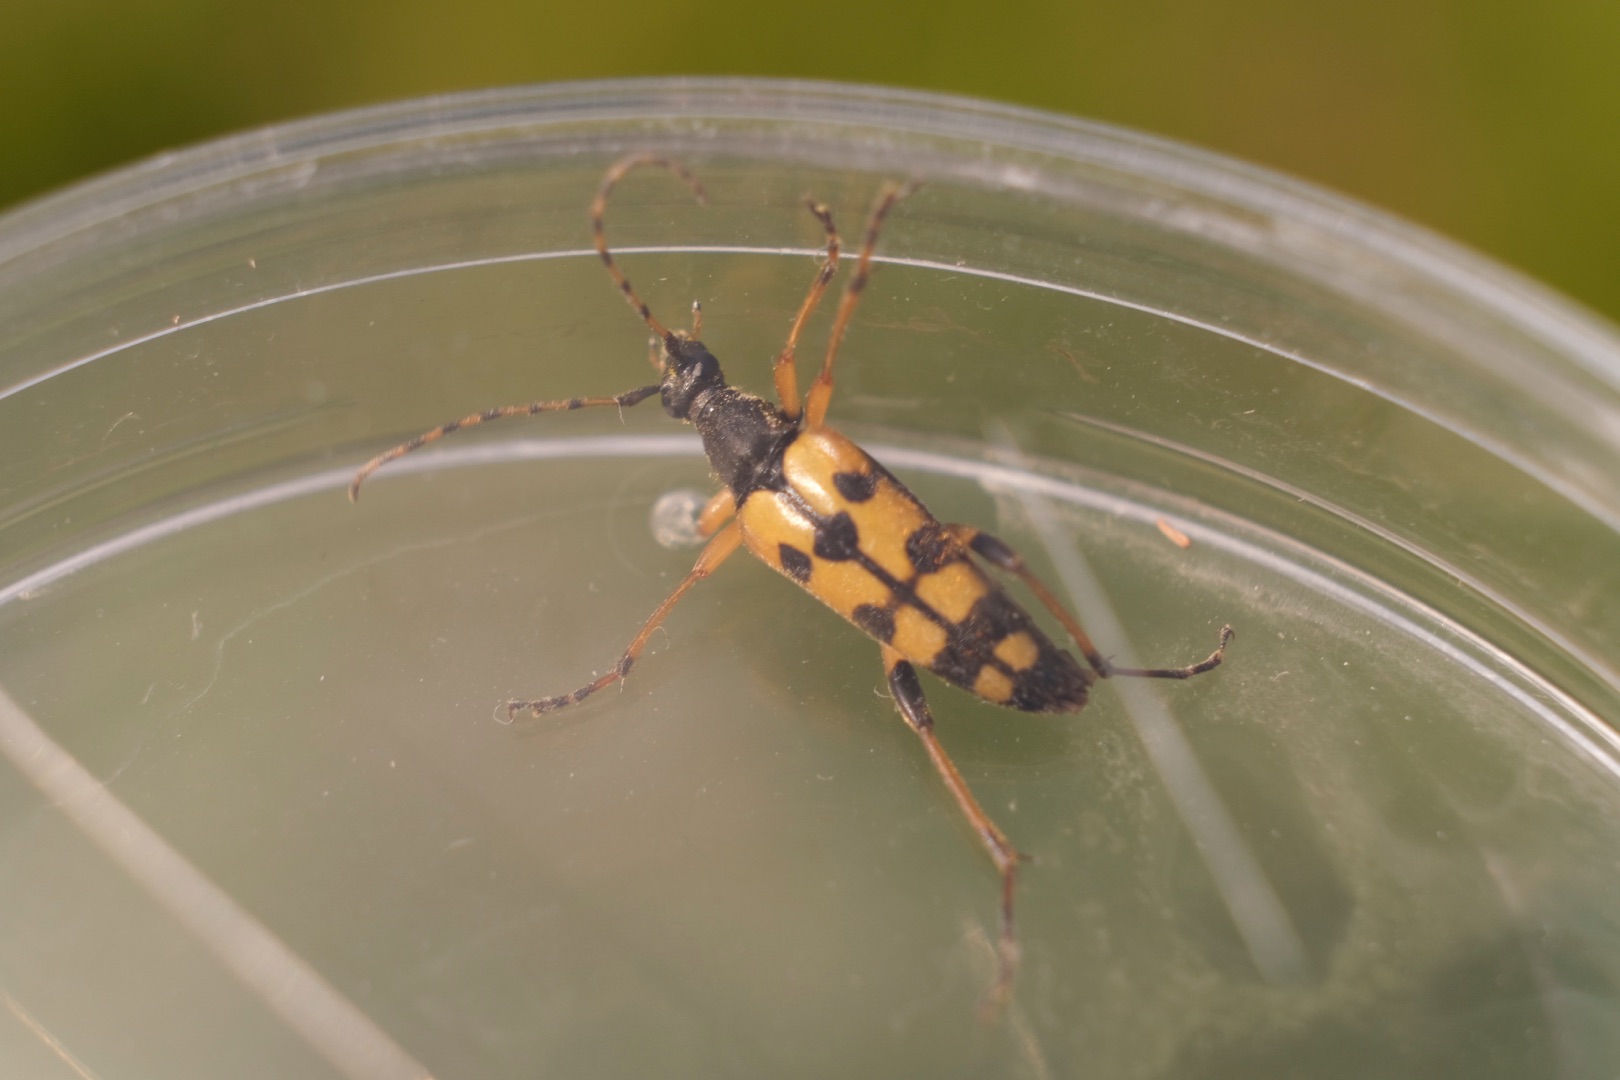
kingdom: Animalia
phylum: Arthropoda
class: Insecta
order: Coleoptera
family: Cerambycidae
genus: Rutpela
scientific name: Rutpela maculata
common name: Sydlig blomsterbuk
